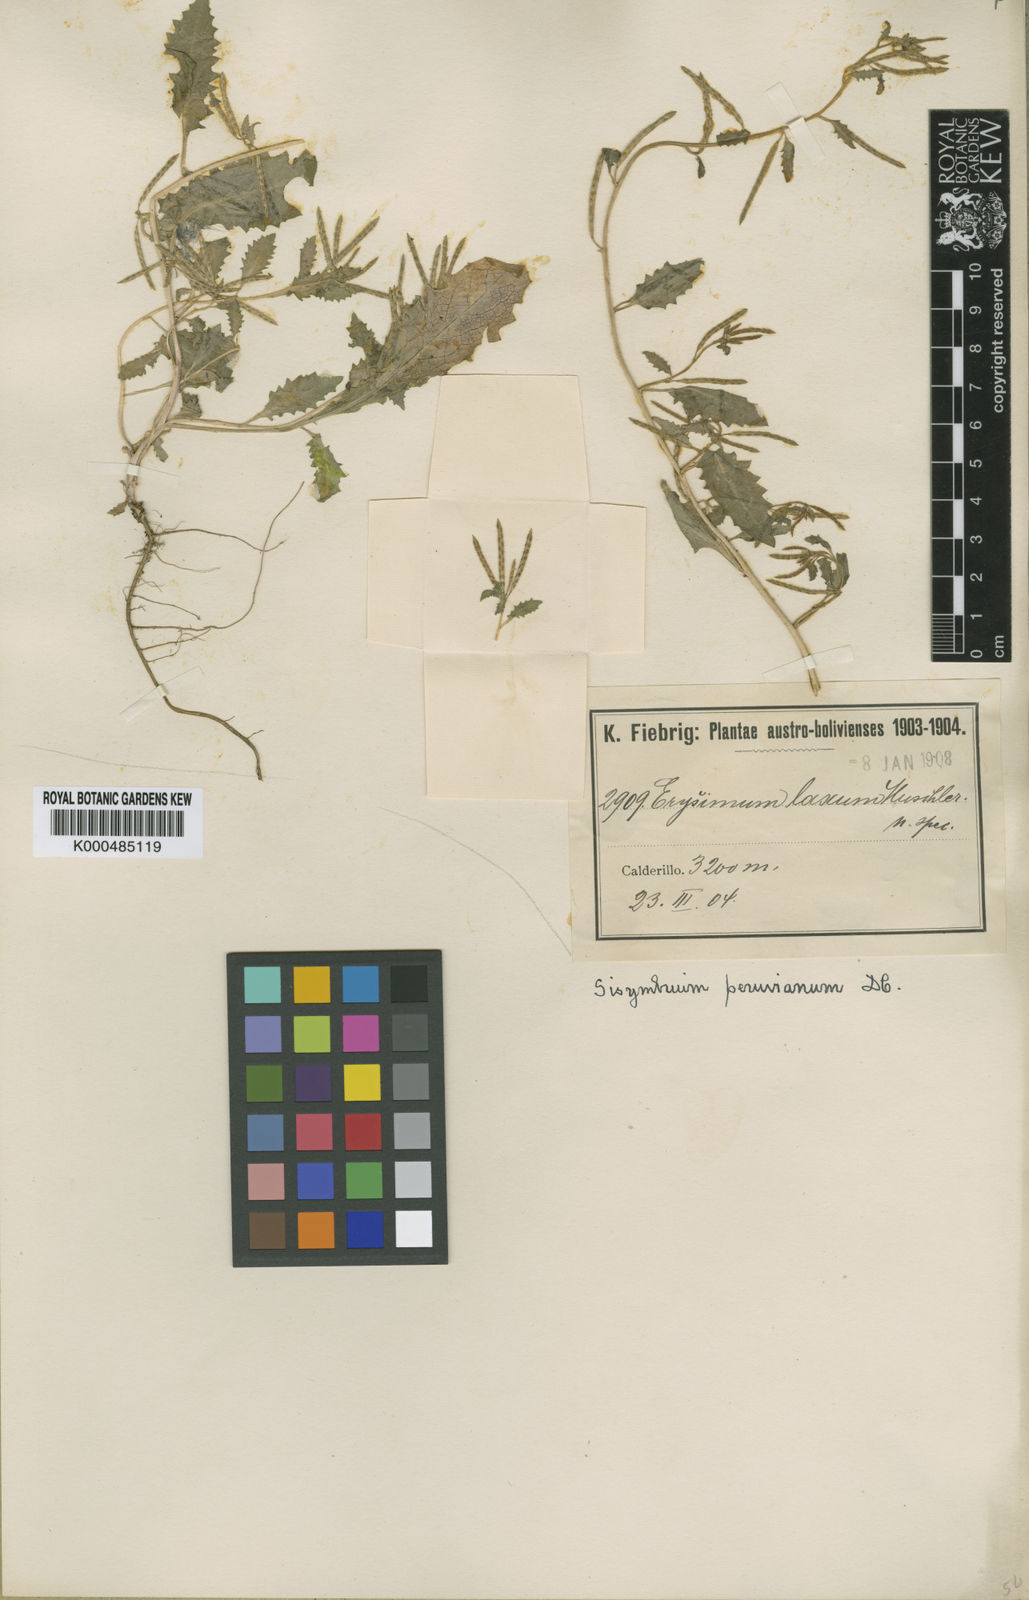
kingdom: Plantae
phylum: Tracheophyta
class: Magnoliopsida
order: Brassicales
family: Brassicaceae
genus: Weberbauera
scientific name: Weberbauera peruviana
